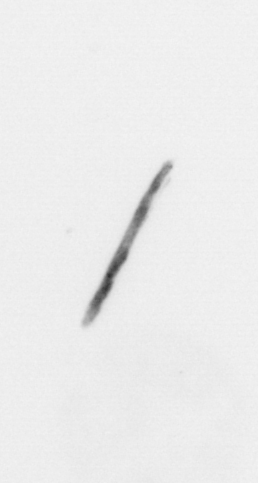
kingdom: Chromista
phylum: Ochrophyta
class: Bacillariophyceae
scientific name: Bacillariophyceae
